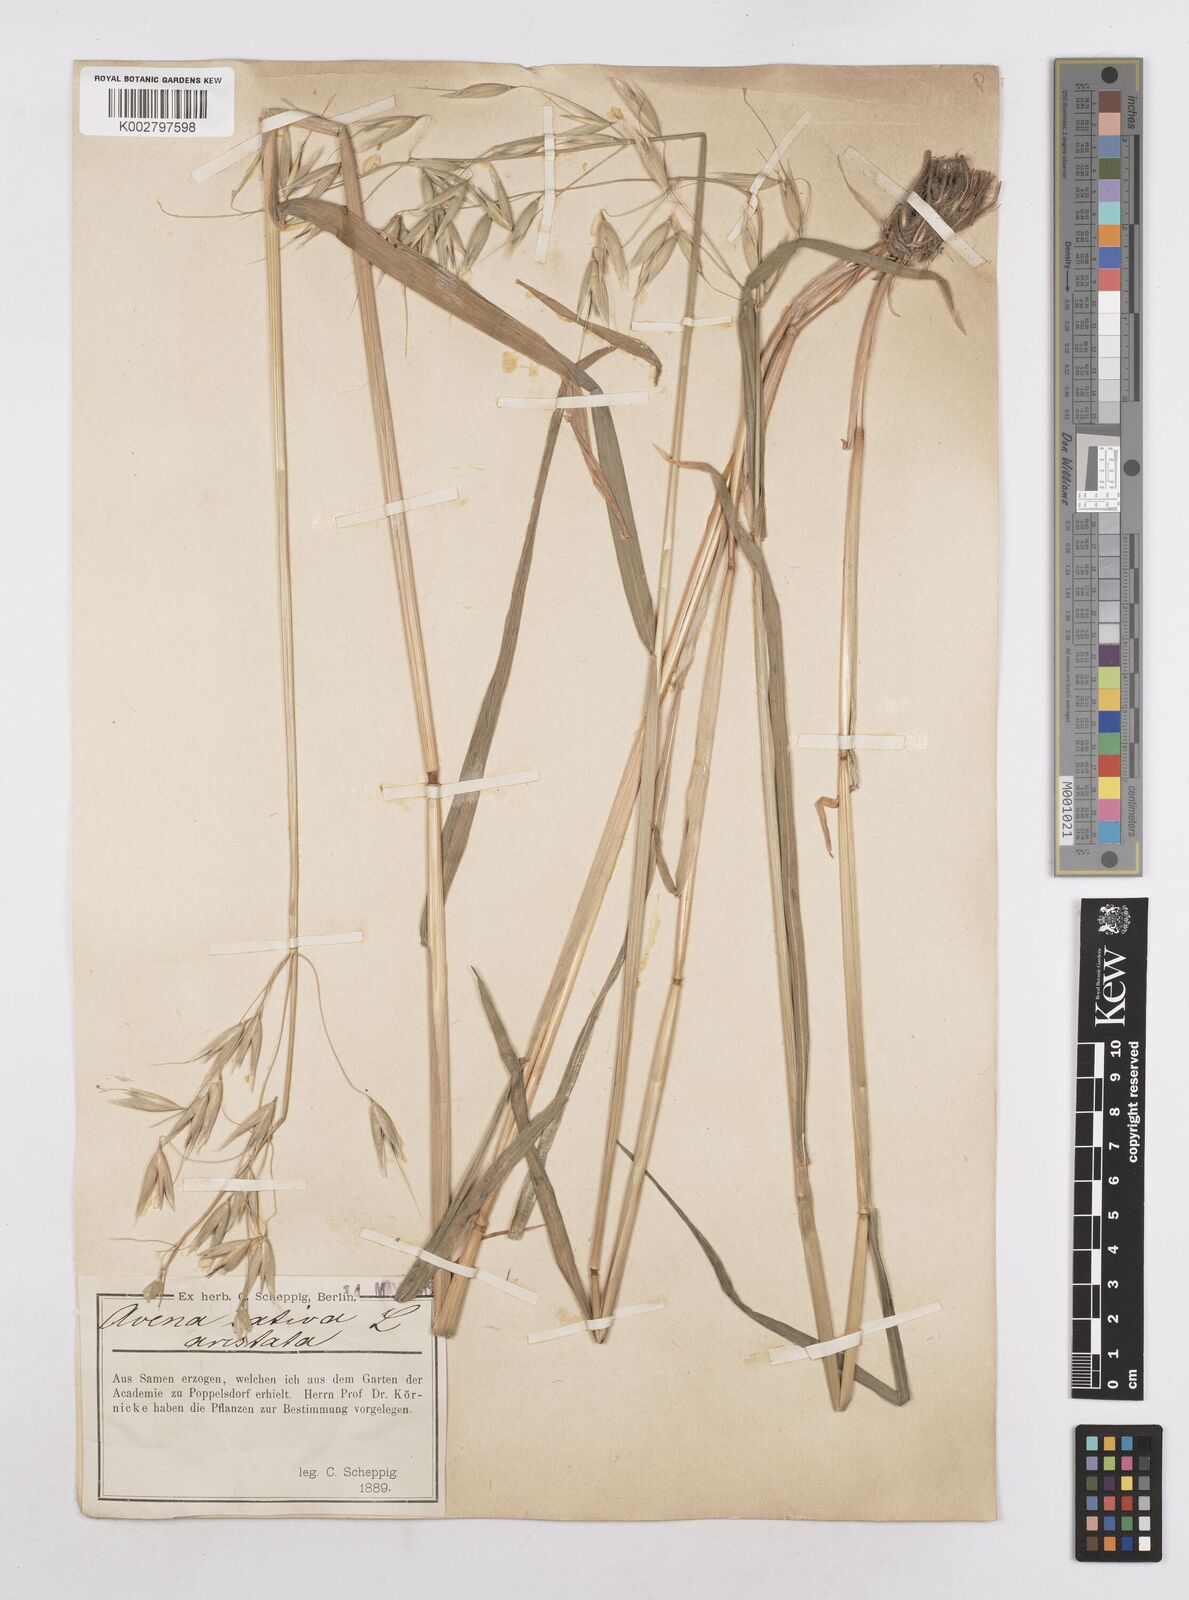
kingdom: Plantae
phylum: Tracheophyta
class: Liliopsida
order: Poales
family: Poaceae
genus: Avena
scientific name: Avena sativa
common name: Oat
